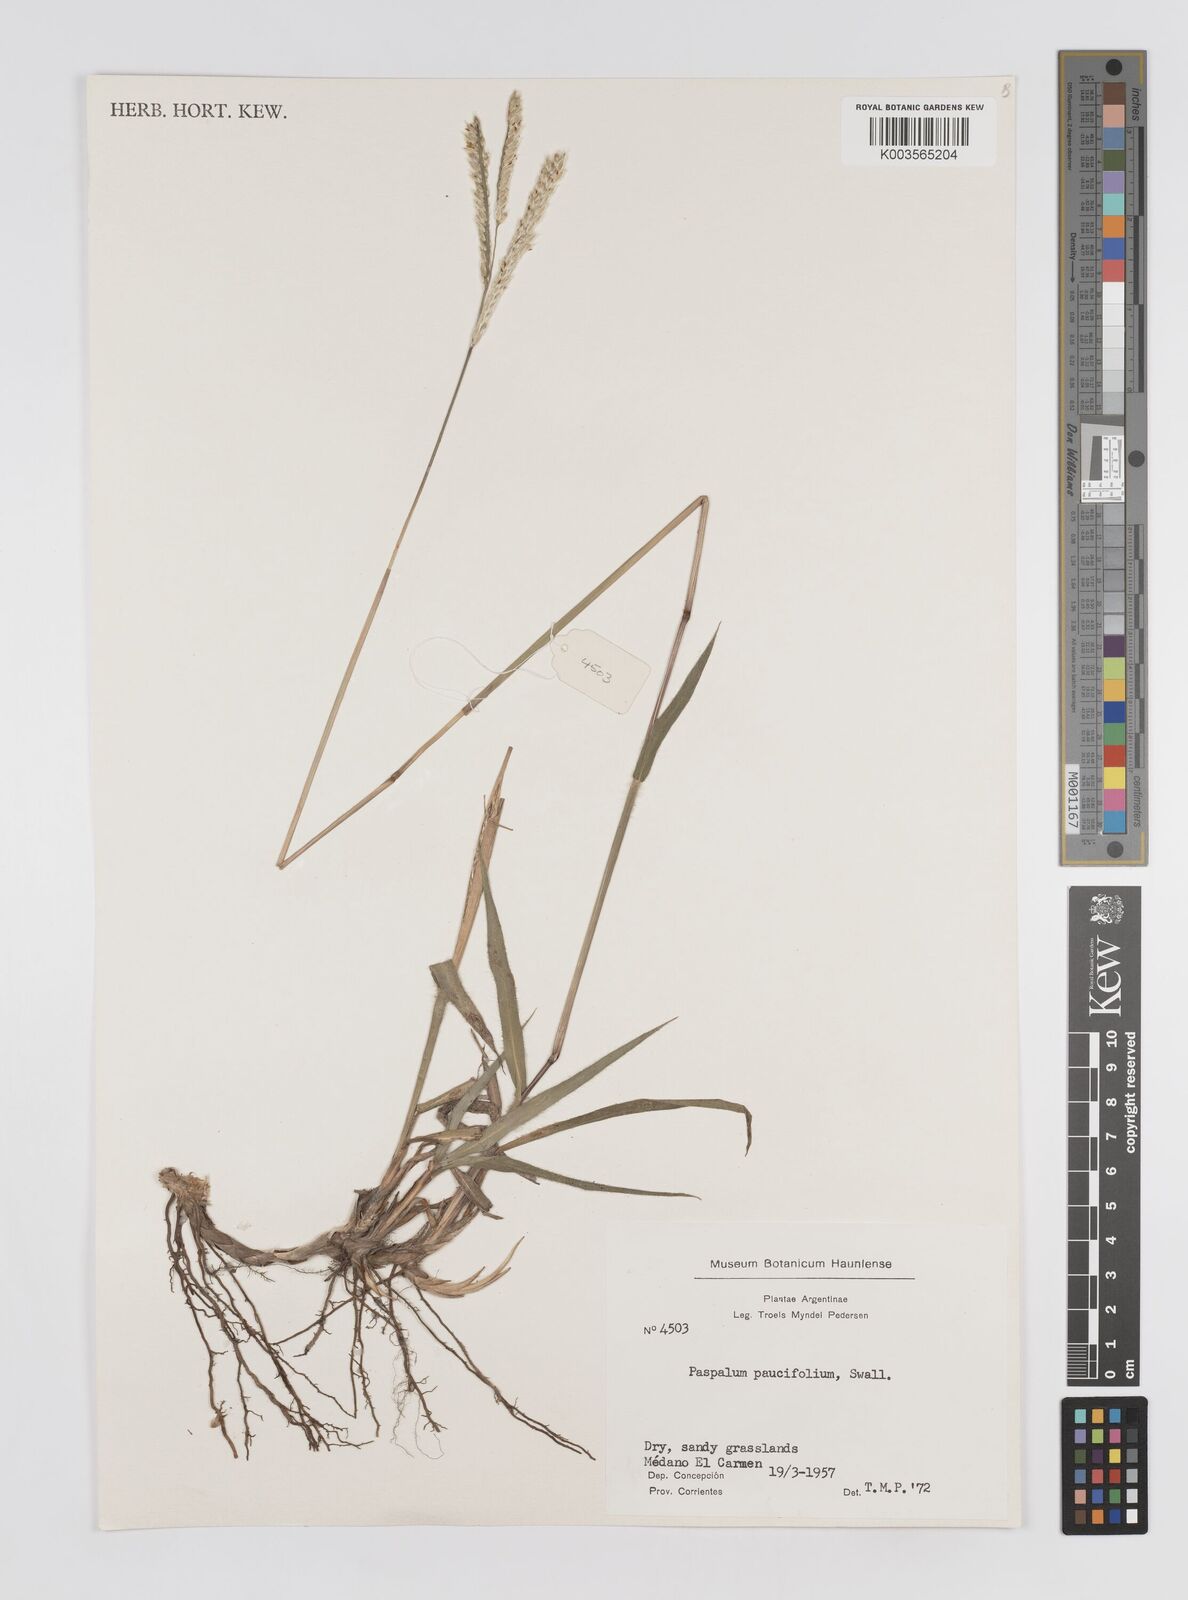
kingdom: Plantae
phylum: Tracheophyta
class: Liliopsida
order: Poales
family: Poaceae
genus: Paspalum
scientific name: Paspalum paucifolium
